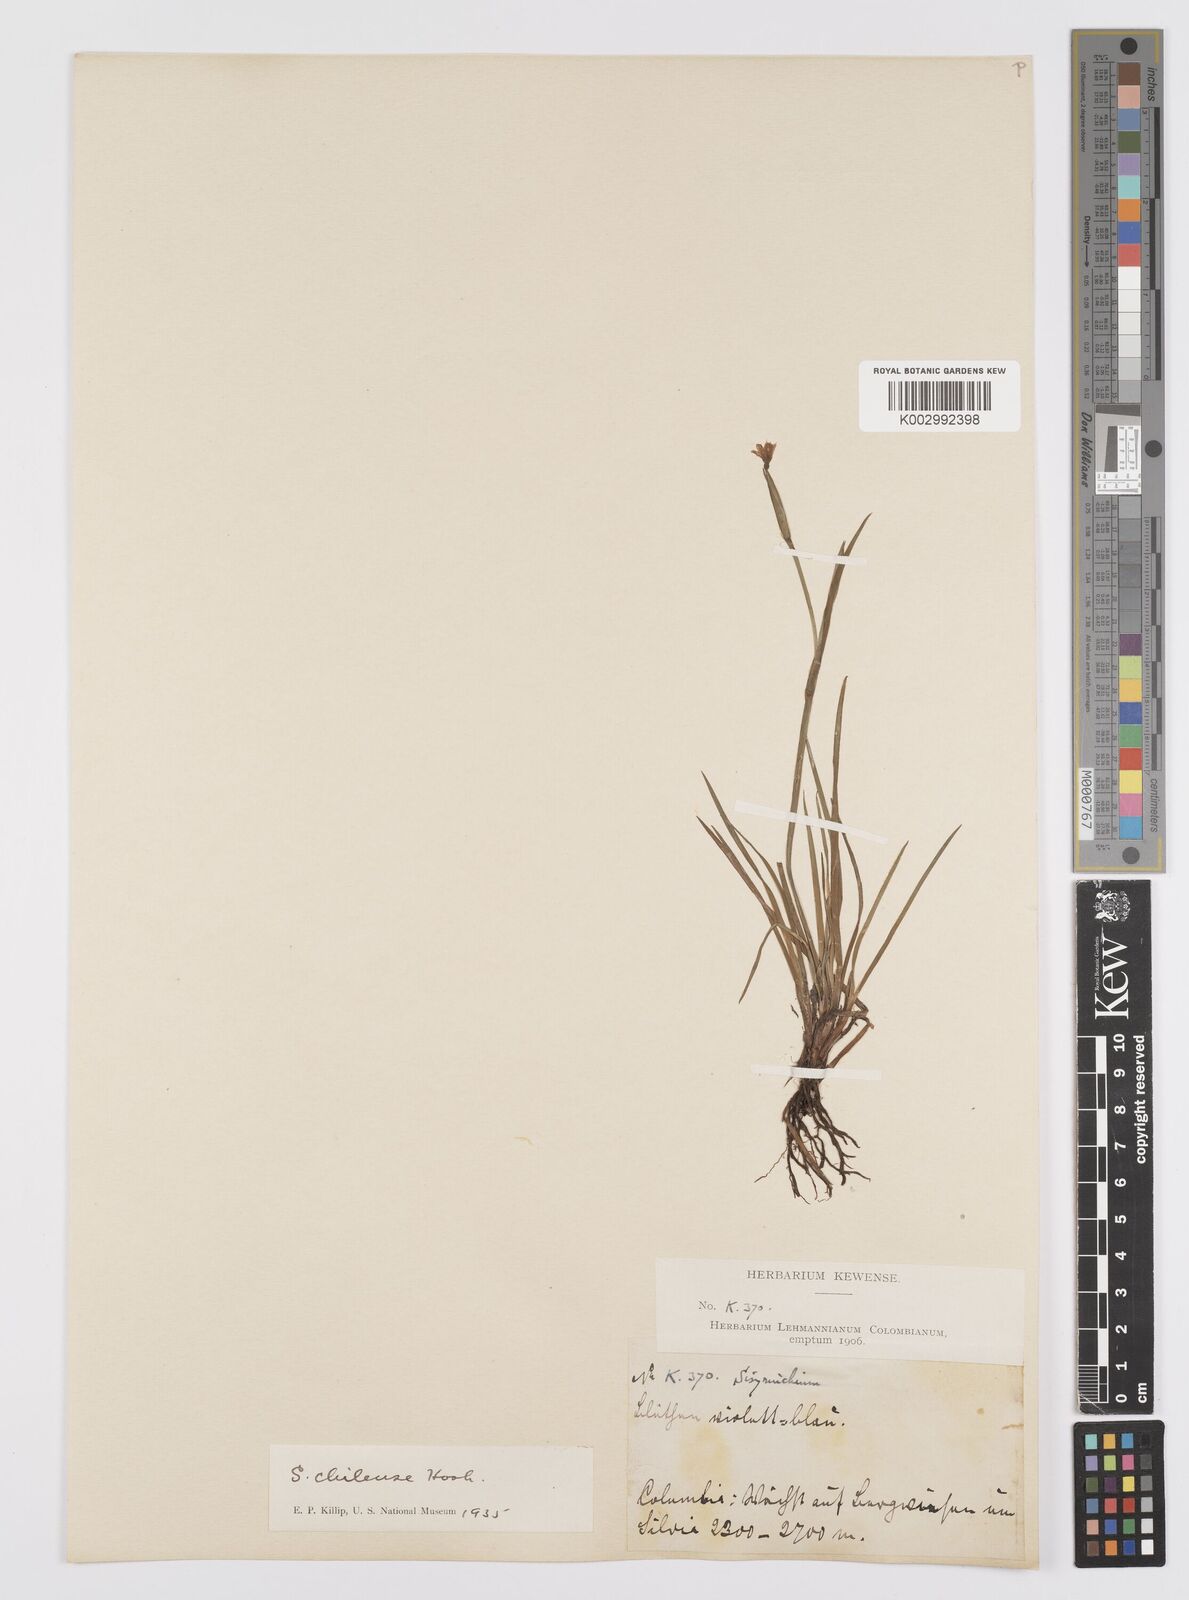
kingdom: Plantae
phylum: Tracheophyta
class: Liliopsida
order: Asparagales
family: Iridaceae
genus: Sisyrinchium
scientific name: Sisyrinchium chilense
